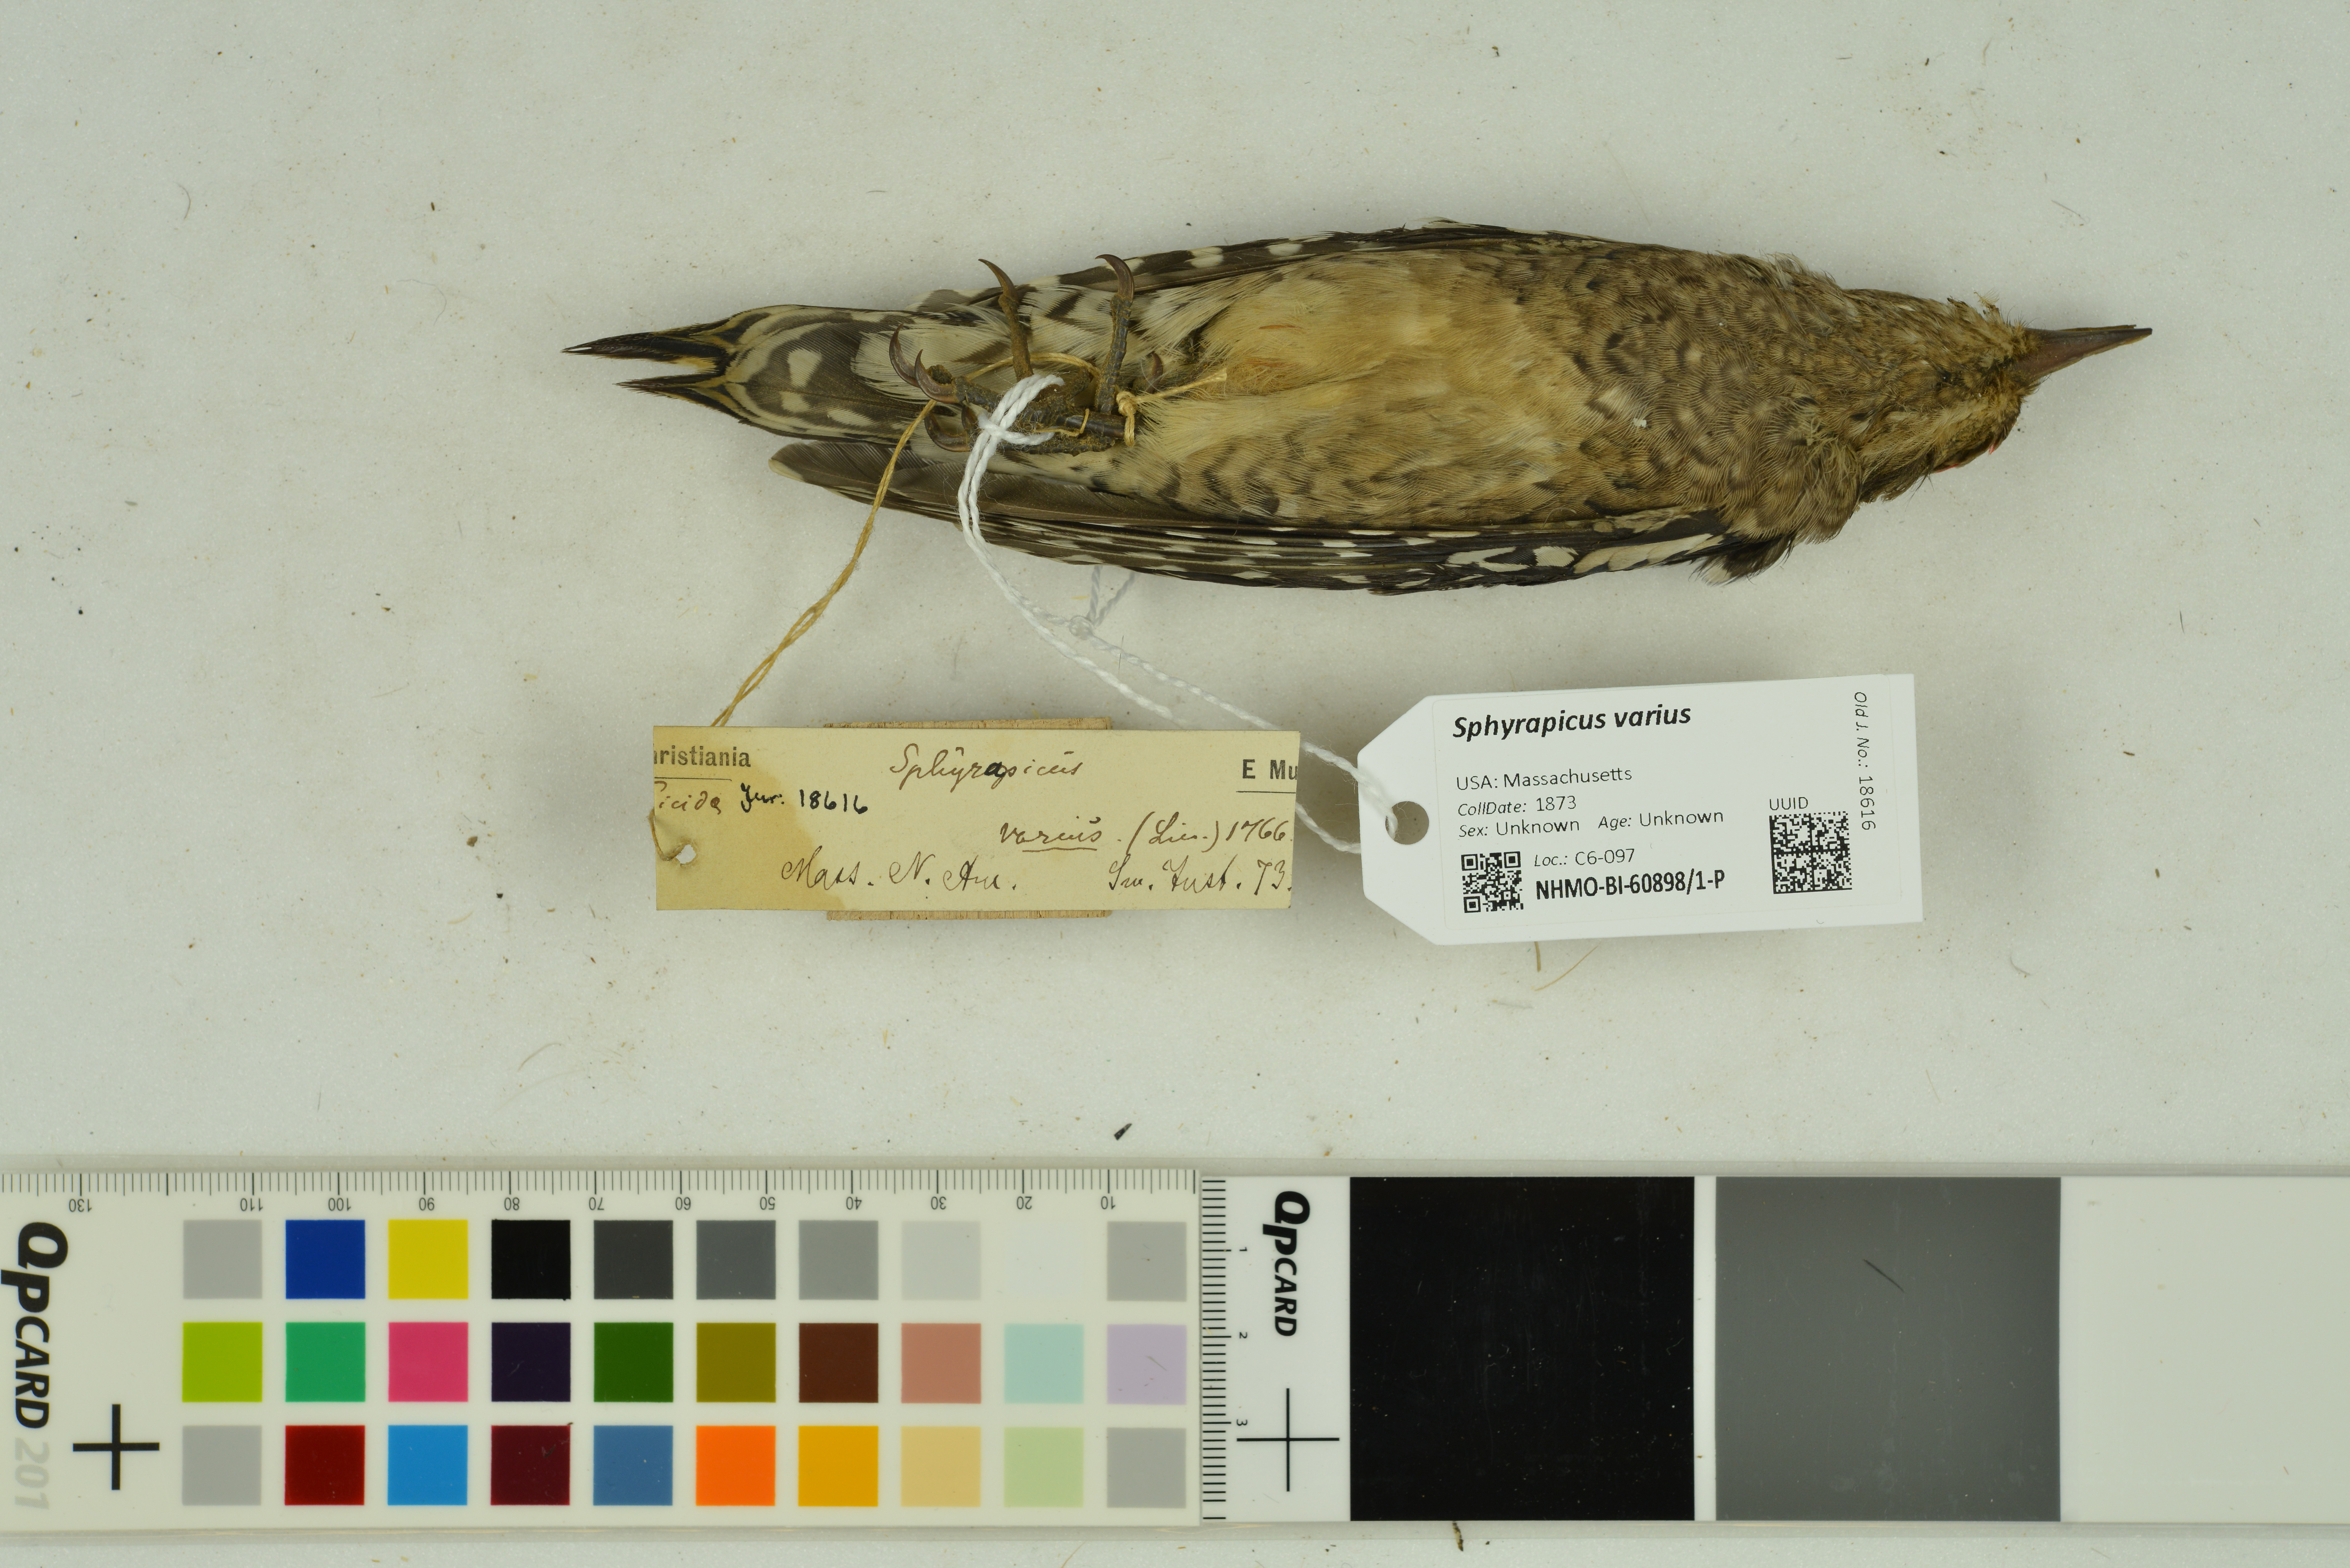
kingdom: Animalia
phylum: Chordata
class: Aves
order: Piciformes
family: Picidae
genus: Sphyrapicus
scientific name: Sphyrapicus varius
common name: Yellow-bellied sapsucker
